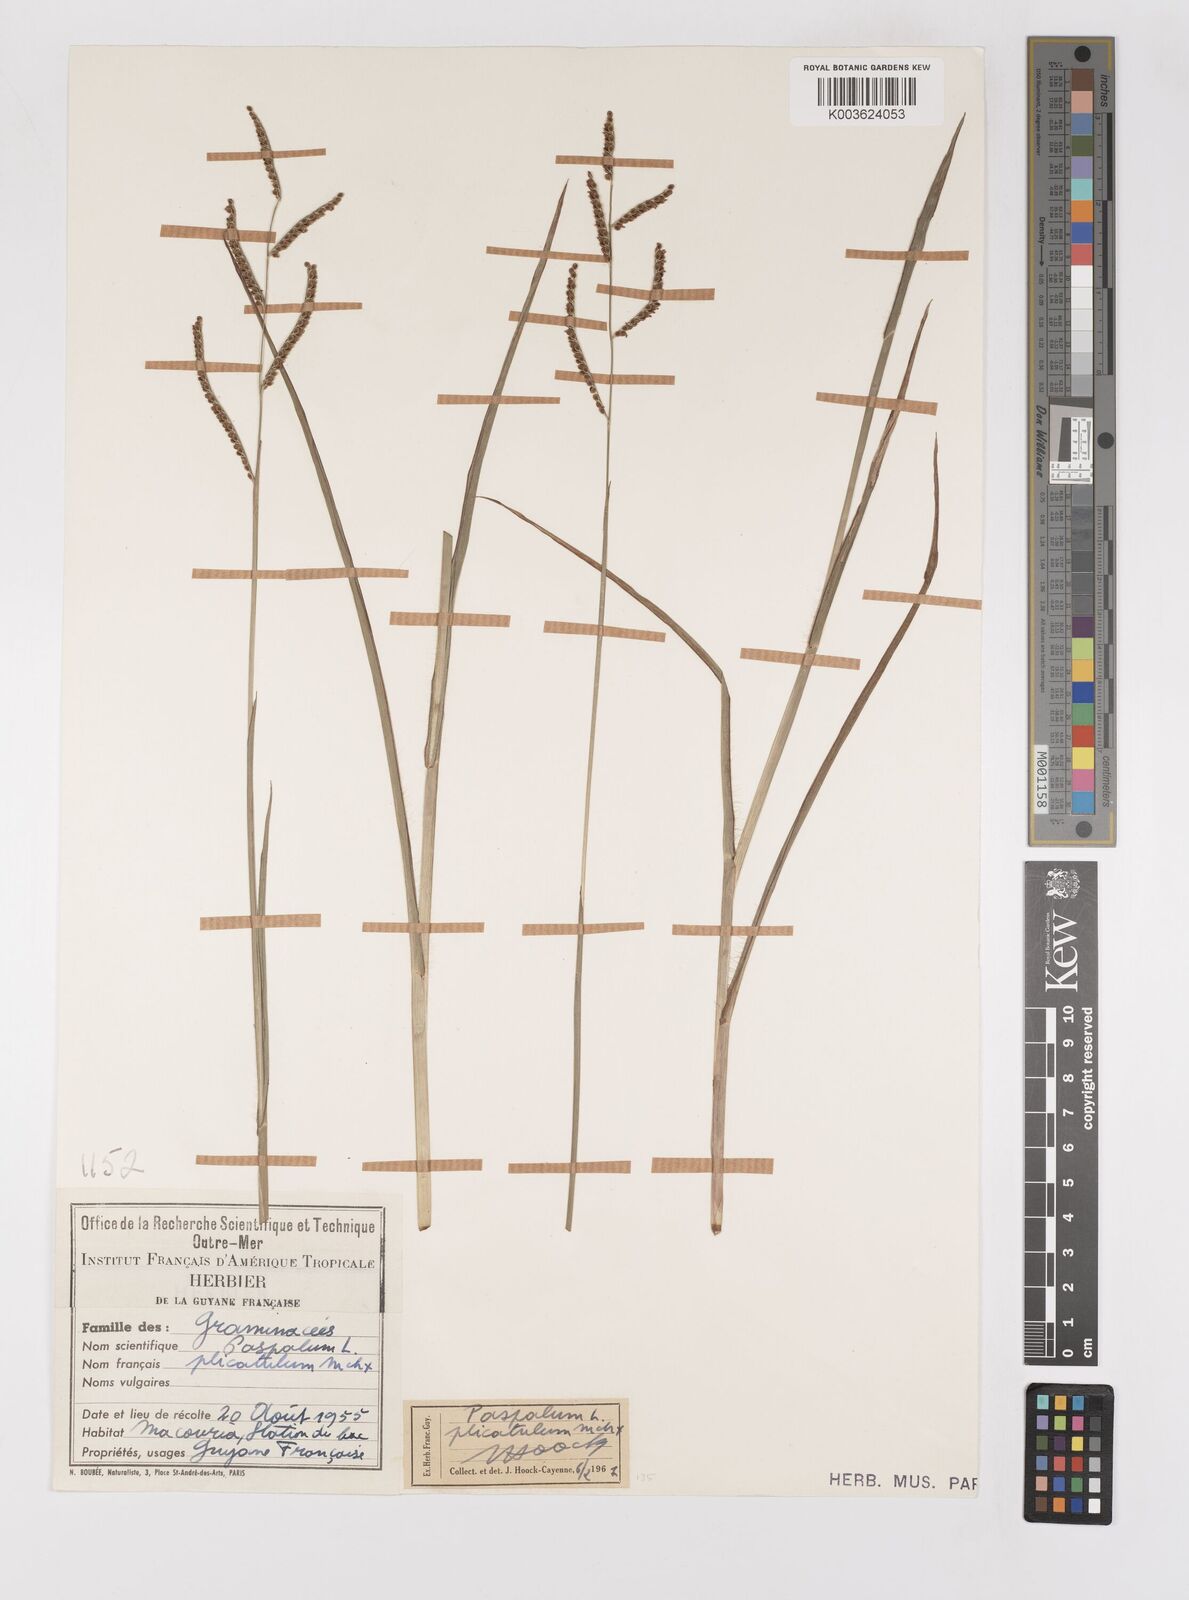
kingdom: Plantae
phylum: Tracheophyta
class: Liliopsida
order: Poales
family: Poaceae
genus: Paspalum
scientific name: Paspalum plicatulum
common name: Top paspalum
